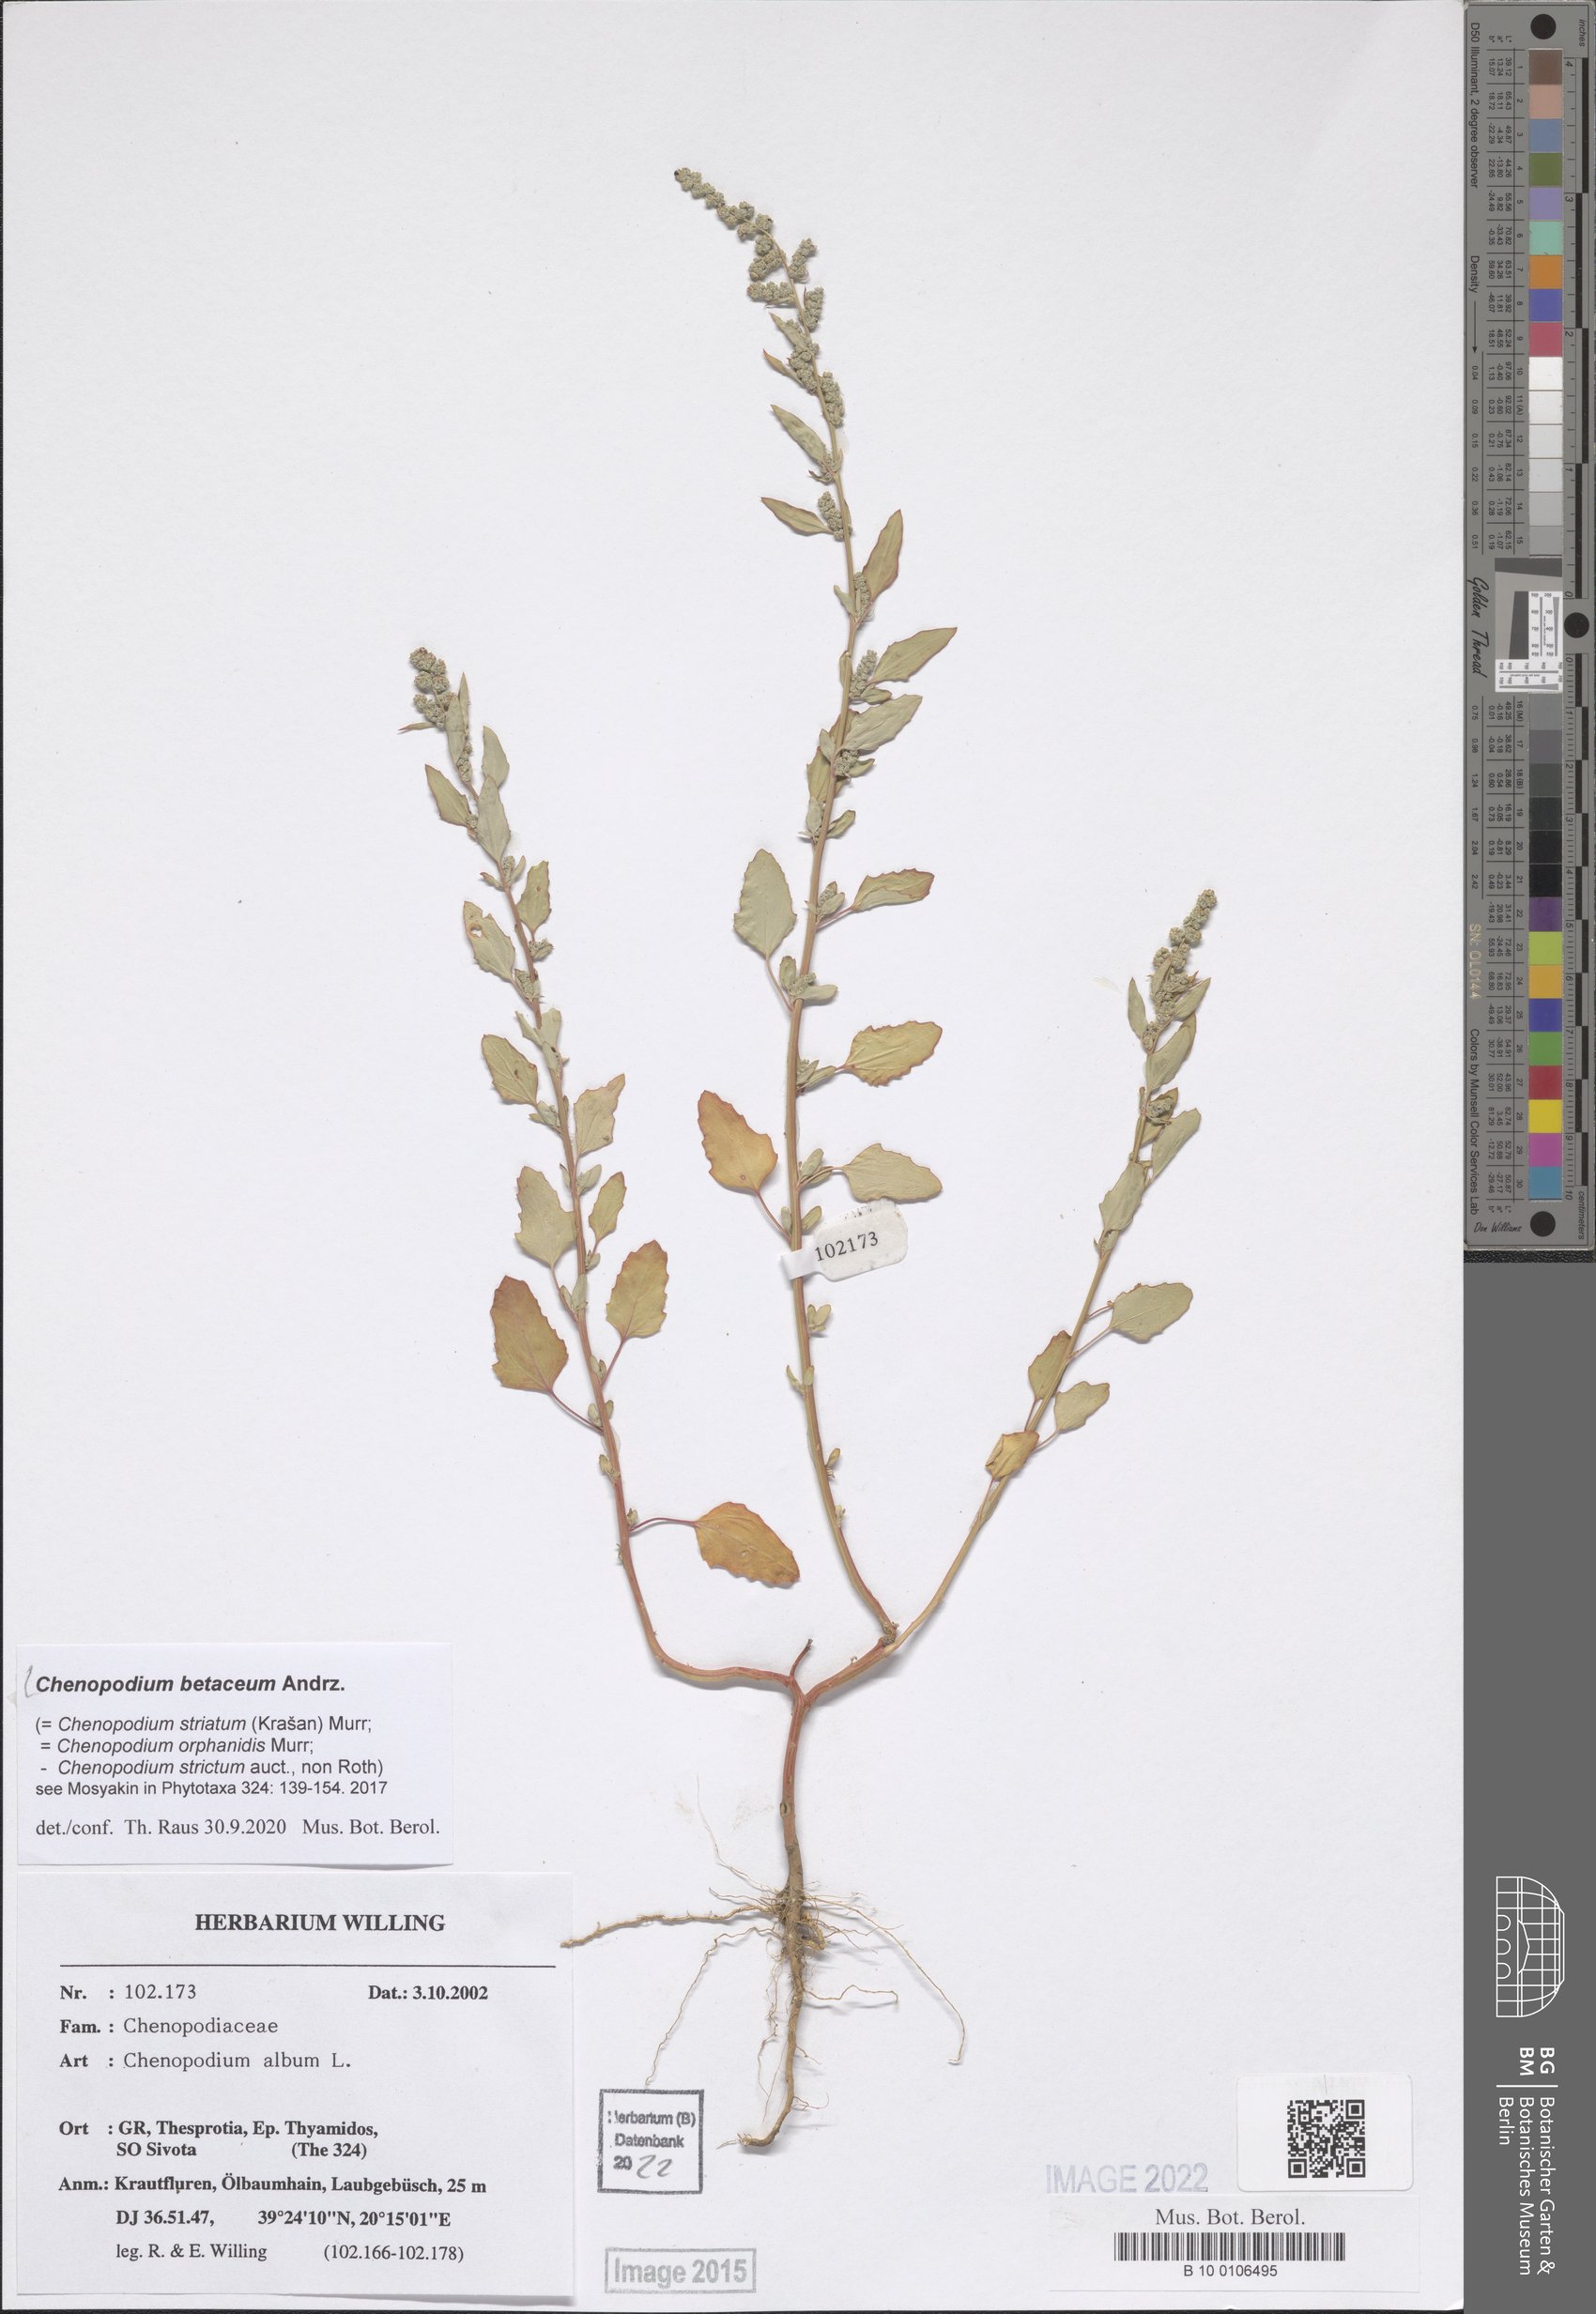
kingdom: Plantae
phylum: Tracheophyta
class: Magnoliopsida
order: Caryophyllales
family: Amaranthaceae
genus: Chenopodium
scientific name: Chenopodium betaceum
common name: Striped goosefoot
